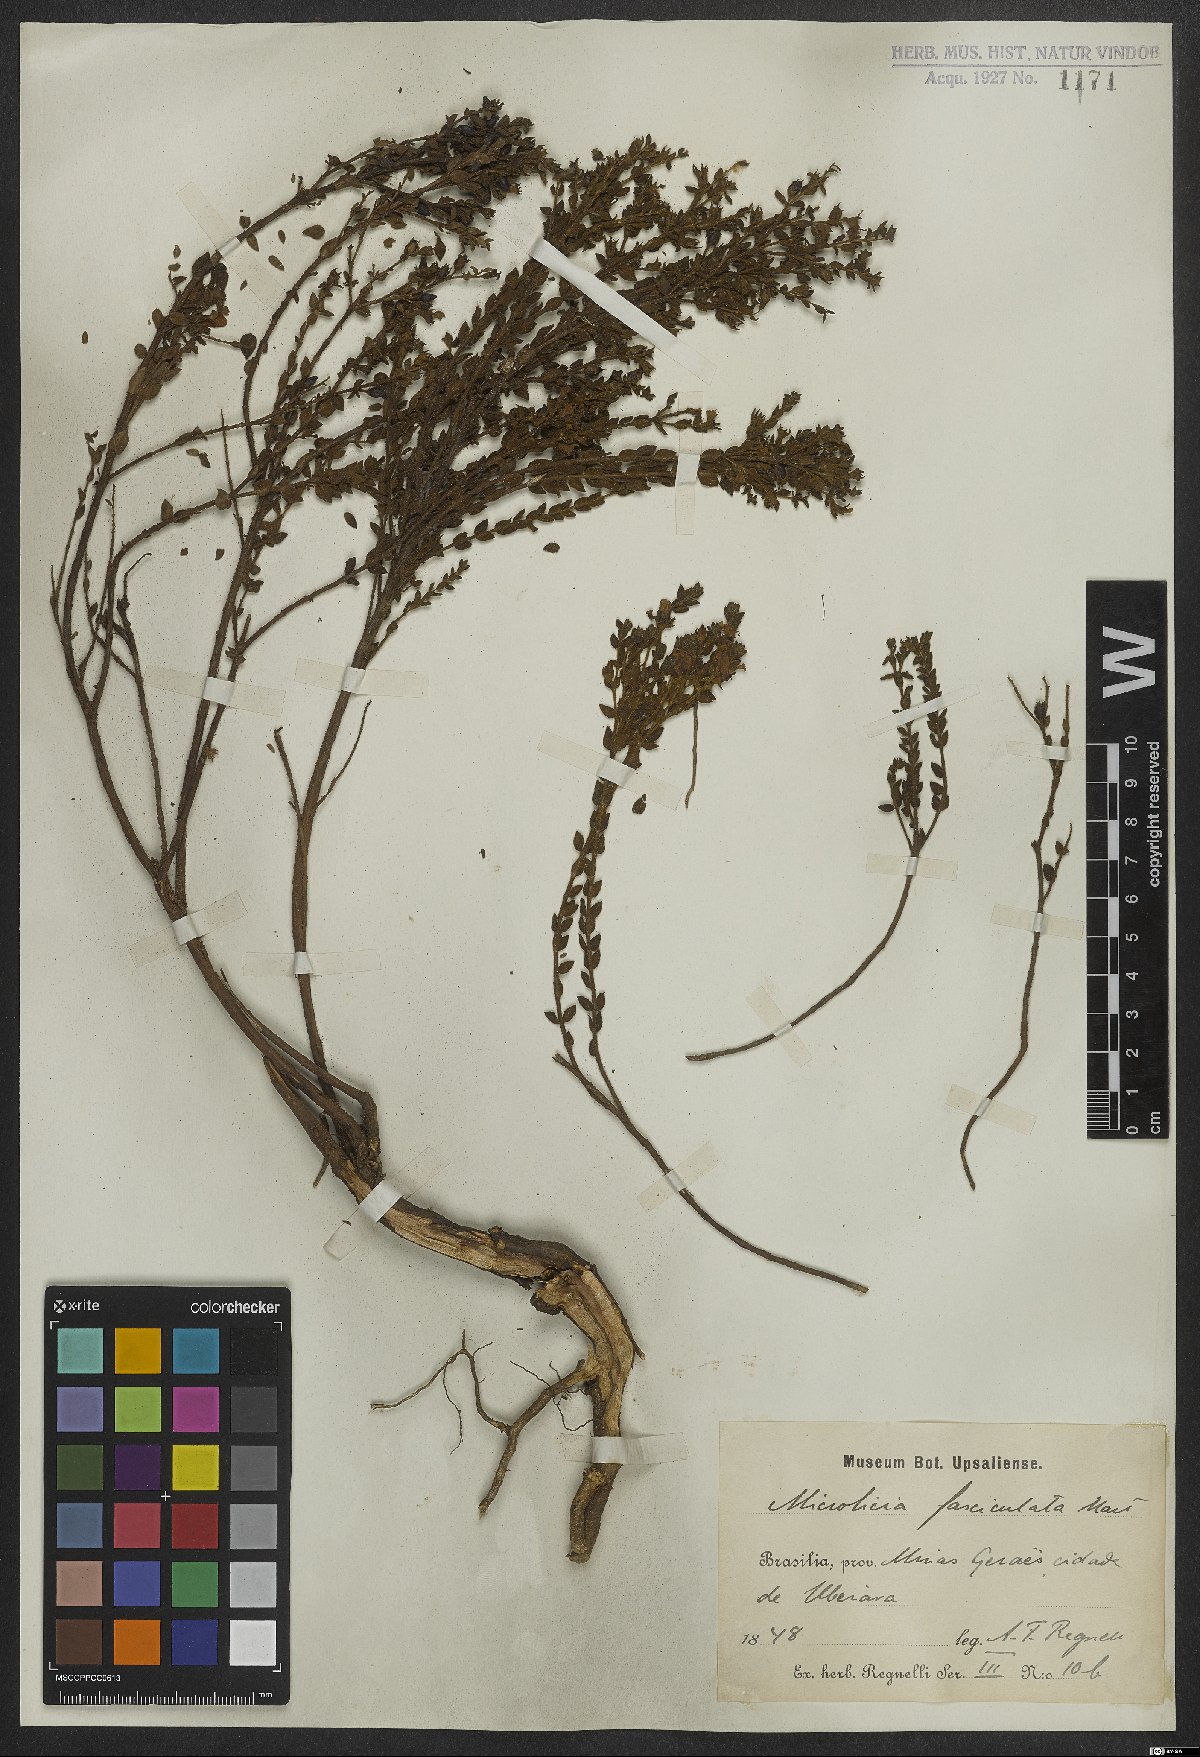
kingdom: Plantae
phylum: Tracheophyta
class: Magnoliopsida
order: Myrtales
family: Melastomataceae
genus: Microlicia
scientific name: Microlicia fasciculata
